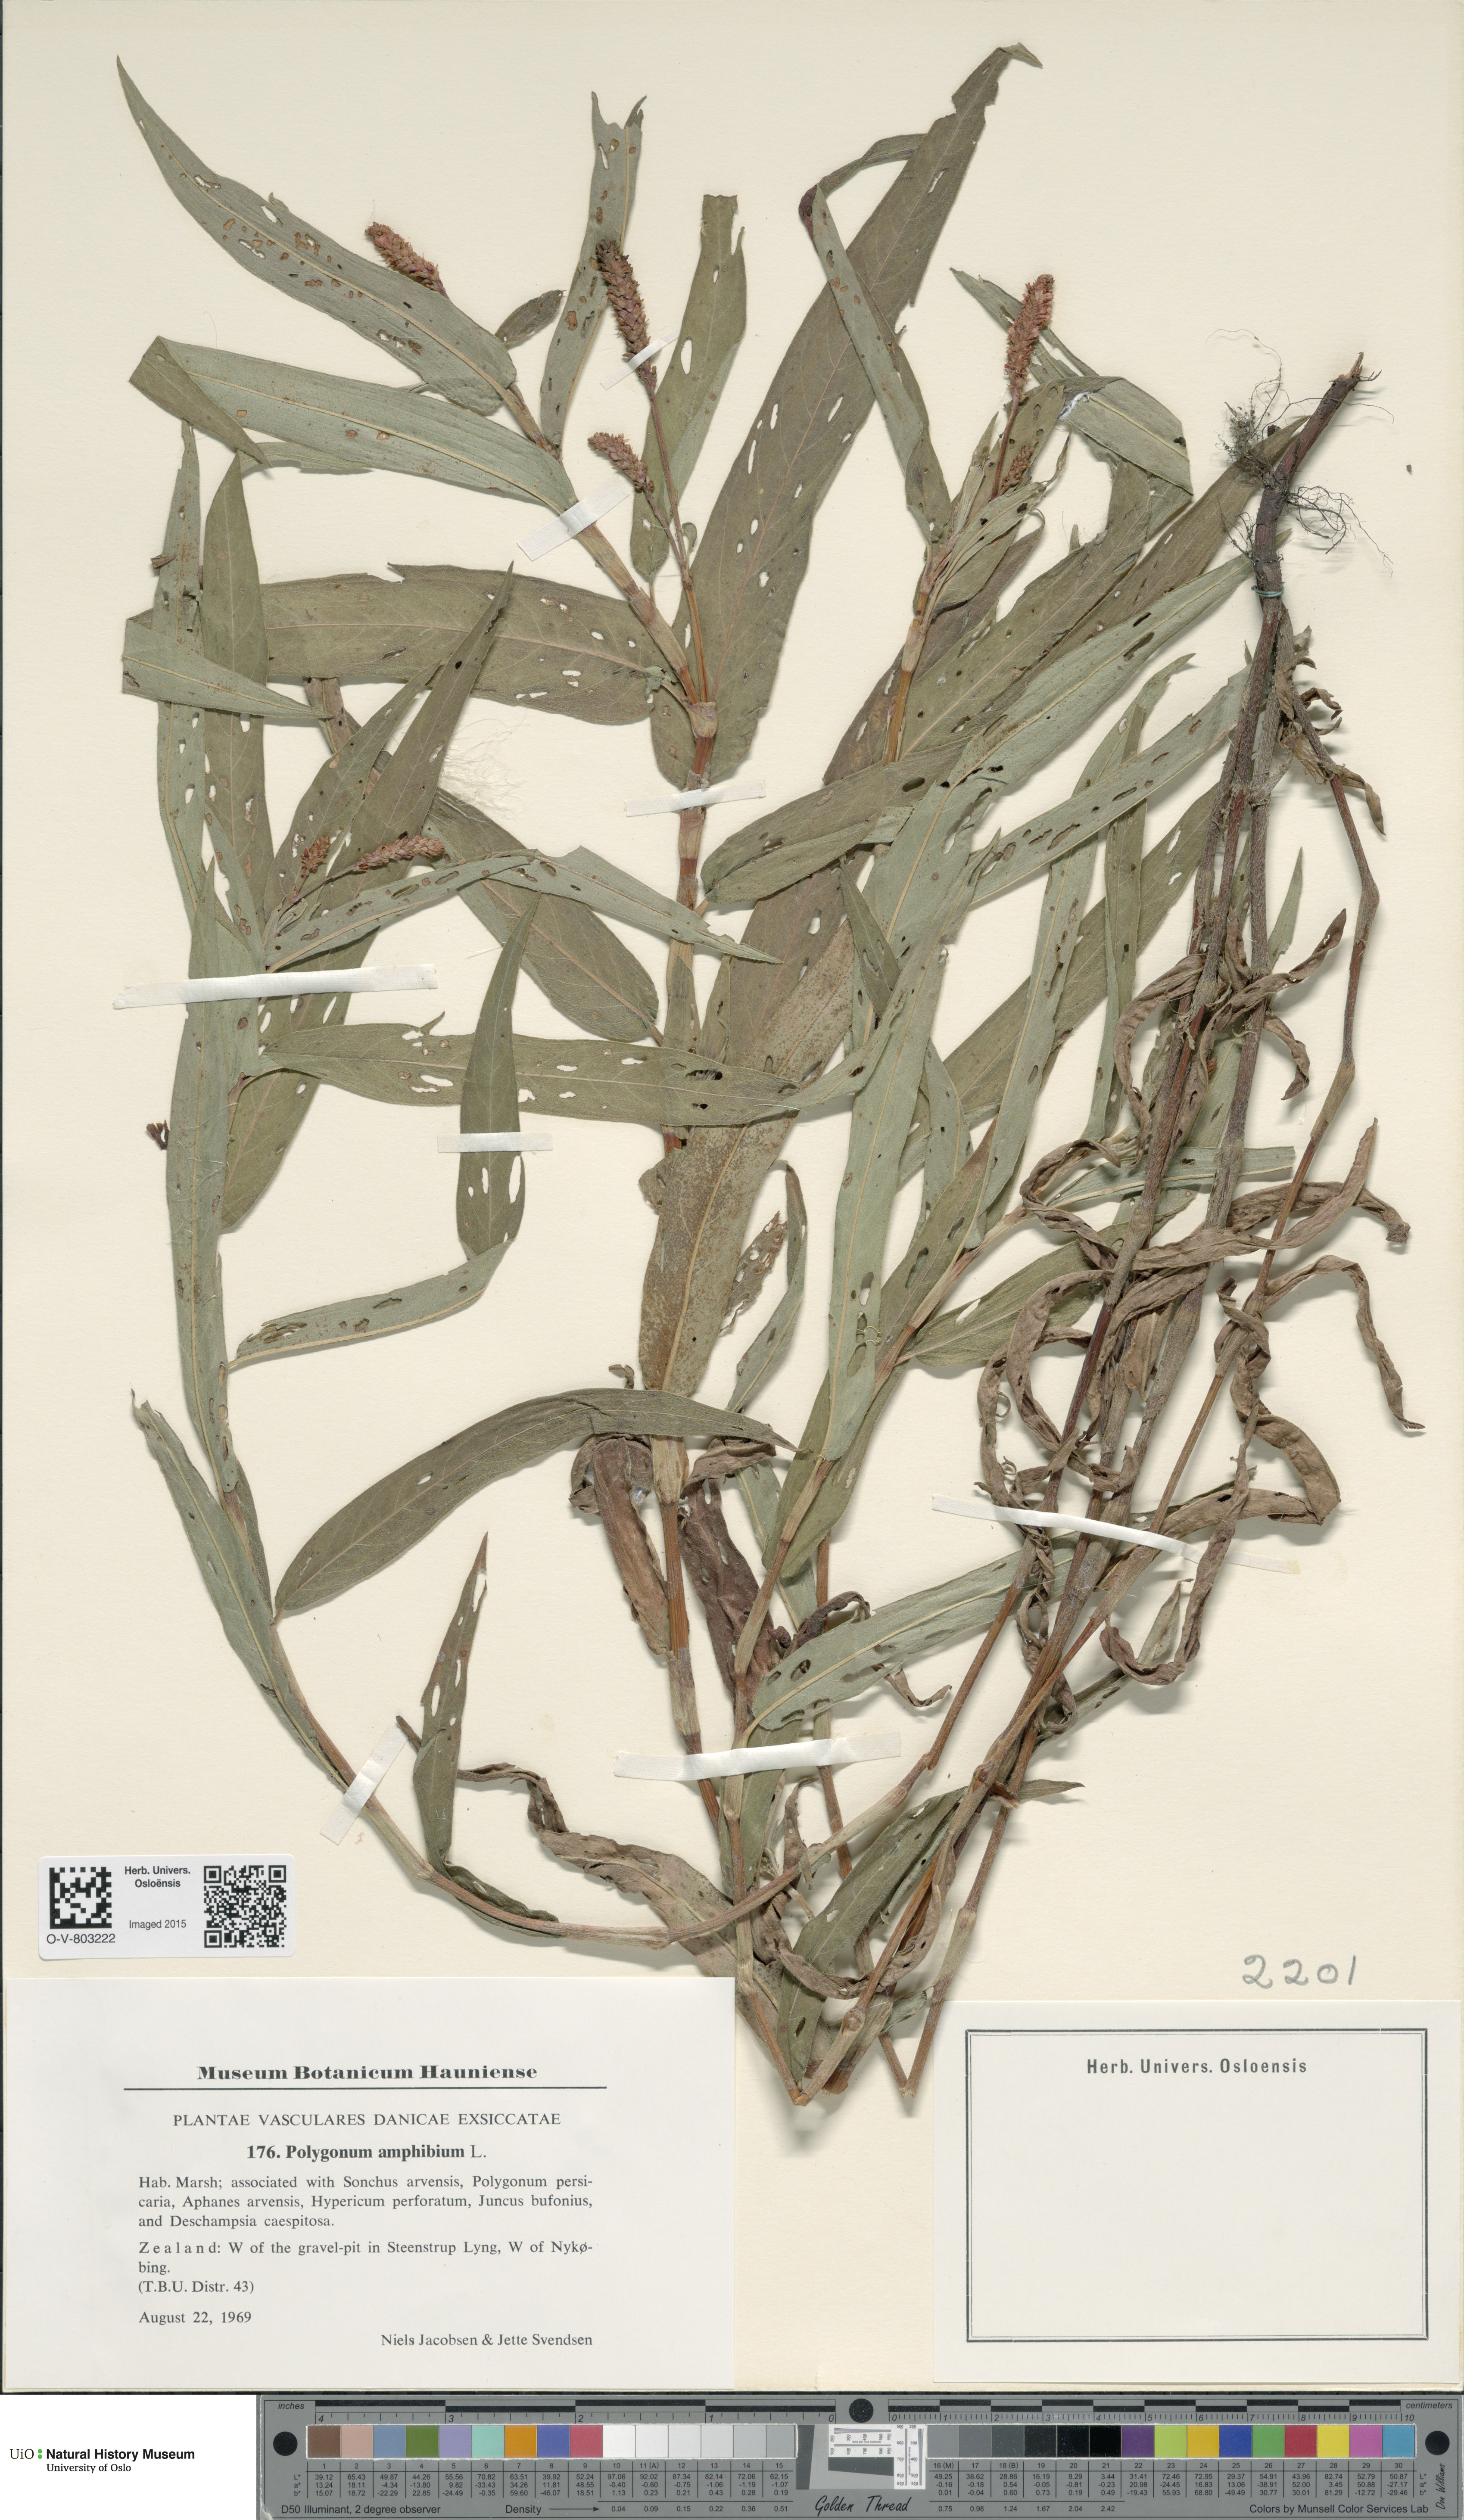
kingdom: Plantae
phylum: Tracheophyta
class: Magnoliopsida
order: Caryophyllales
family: Polygonaceae
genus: Persicaria
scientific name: Persicaria amphibia
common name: Amphibious bistort
